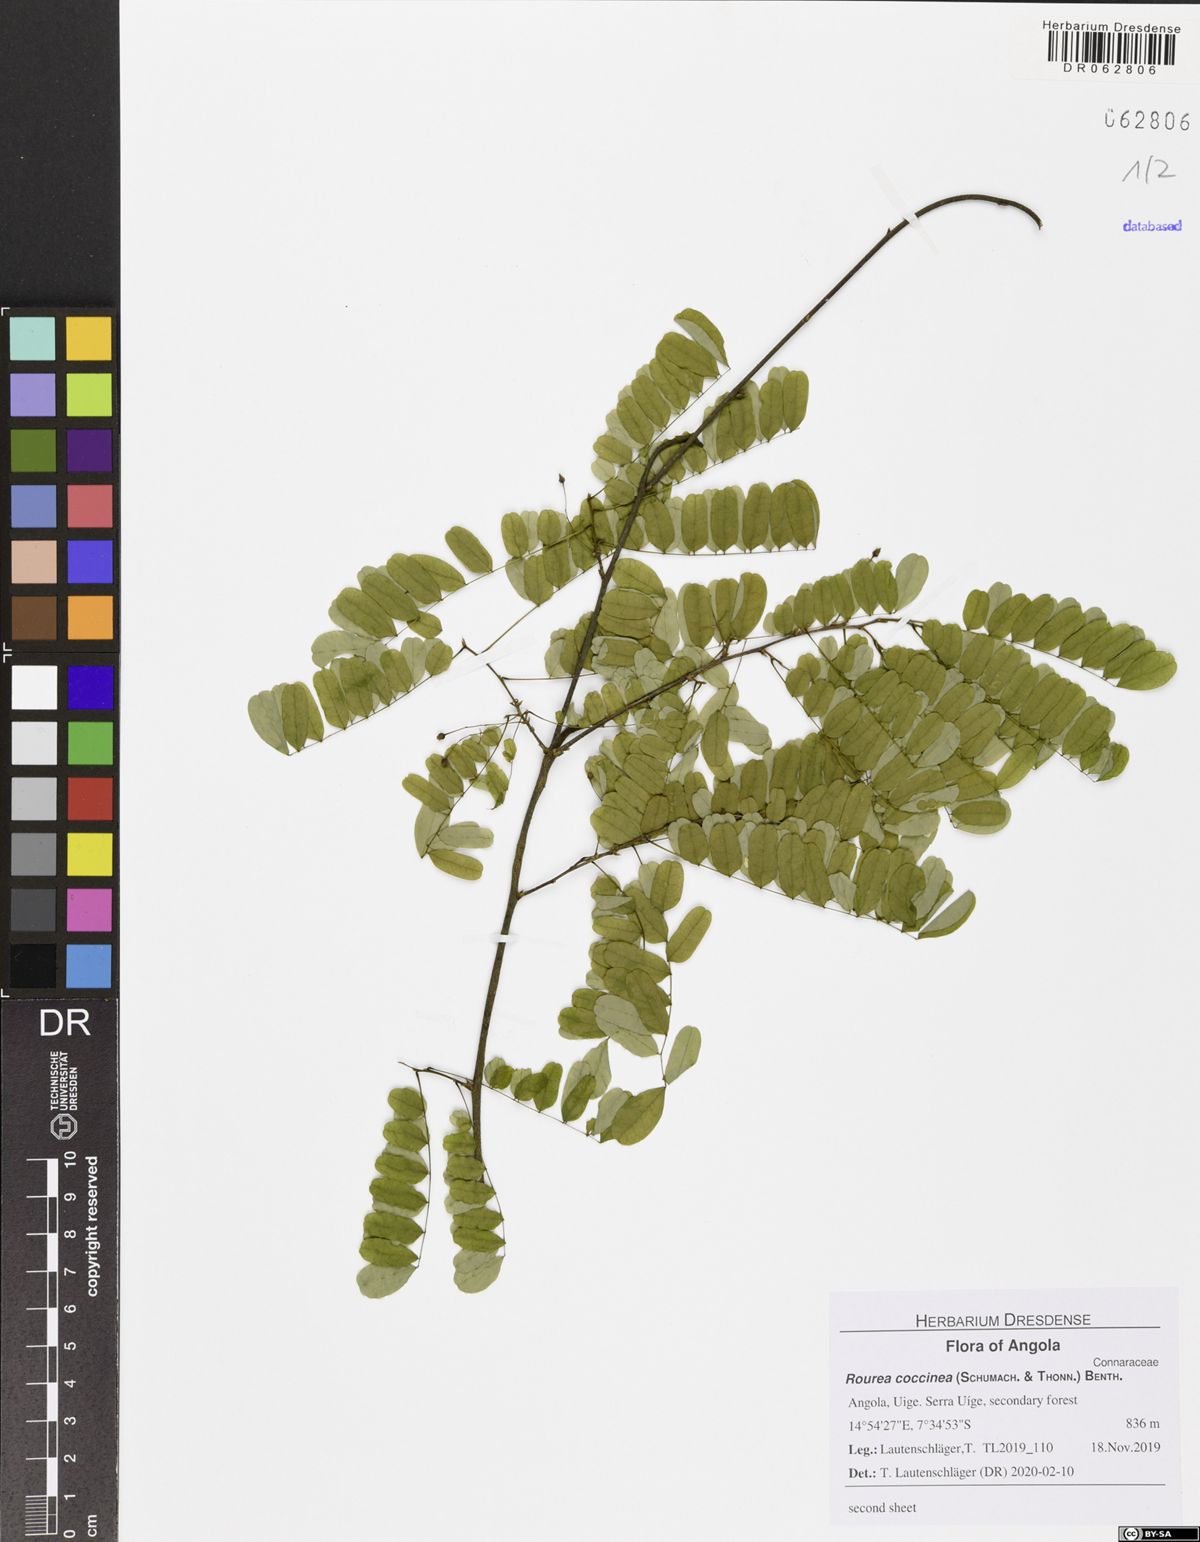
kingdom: Plantae
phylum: Tracheophyta
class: Magnoliopsida
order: Oxalidales
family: Connaraceae
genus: Rourea
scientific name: Rourea coccinea
